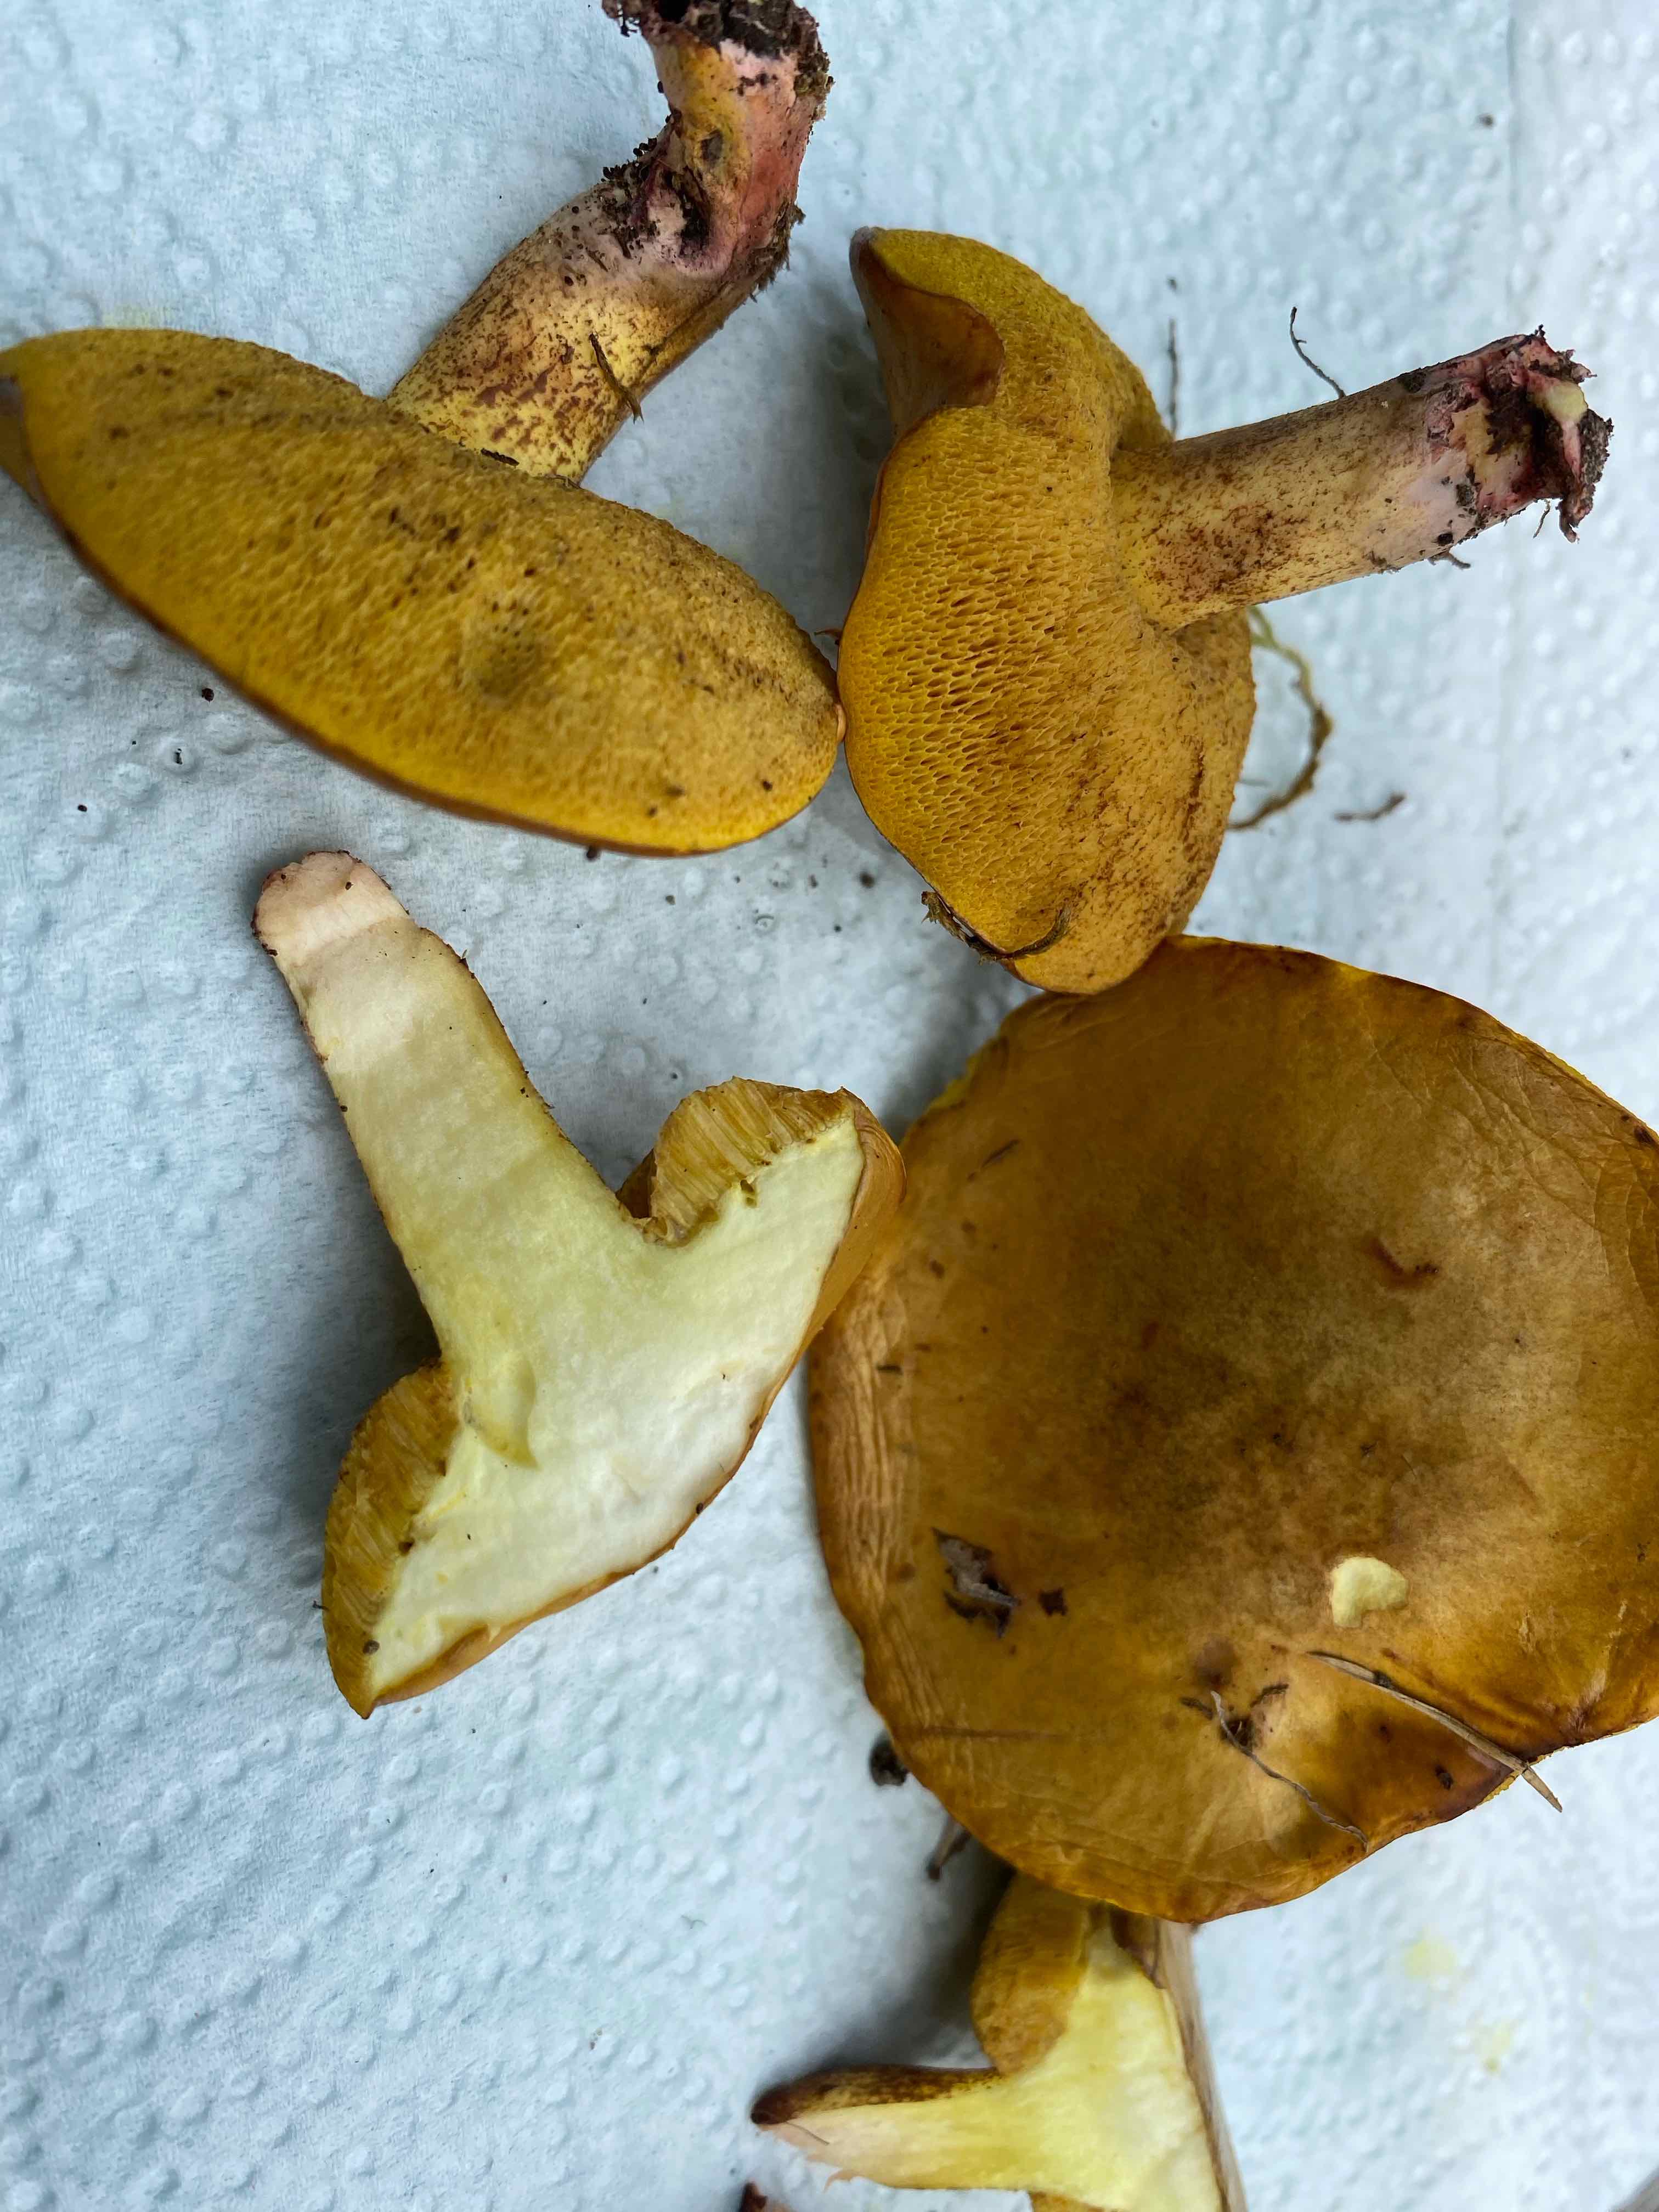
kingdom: Fungi
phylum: Basidiomycota
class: Agaricomycetes
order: Boletales
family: Suillaceae
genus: Suillus
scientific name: Suillus collinitus
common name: rosafodet slimrørhat
